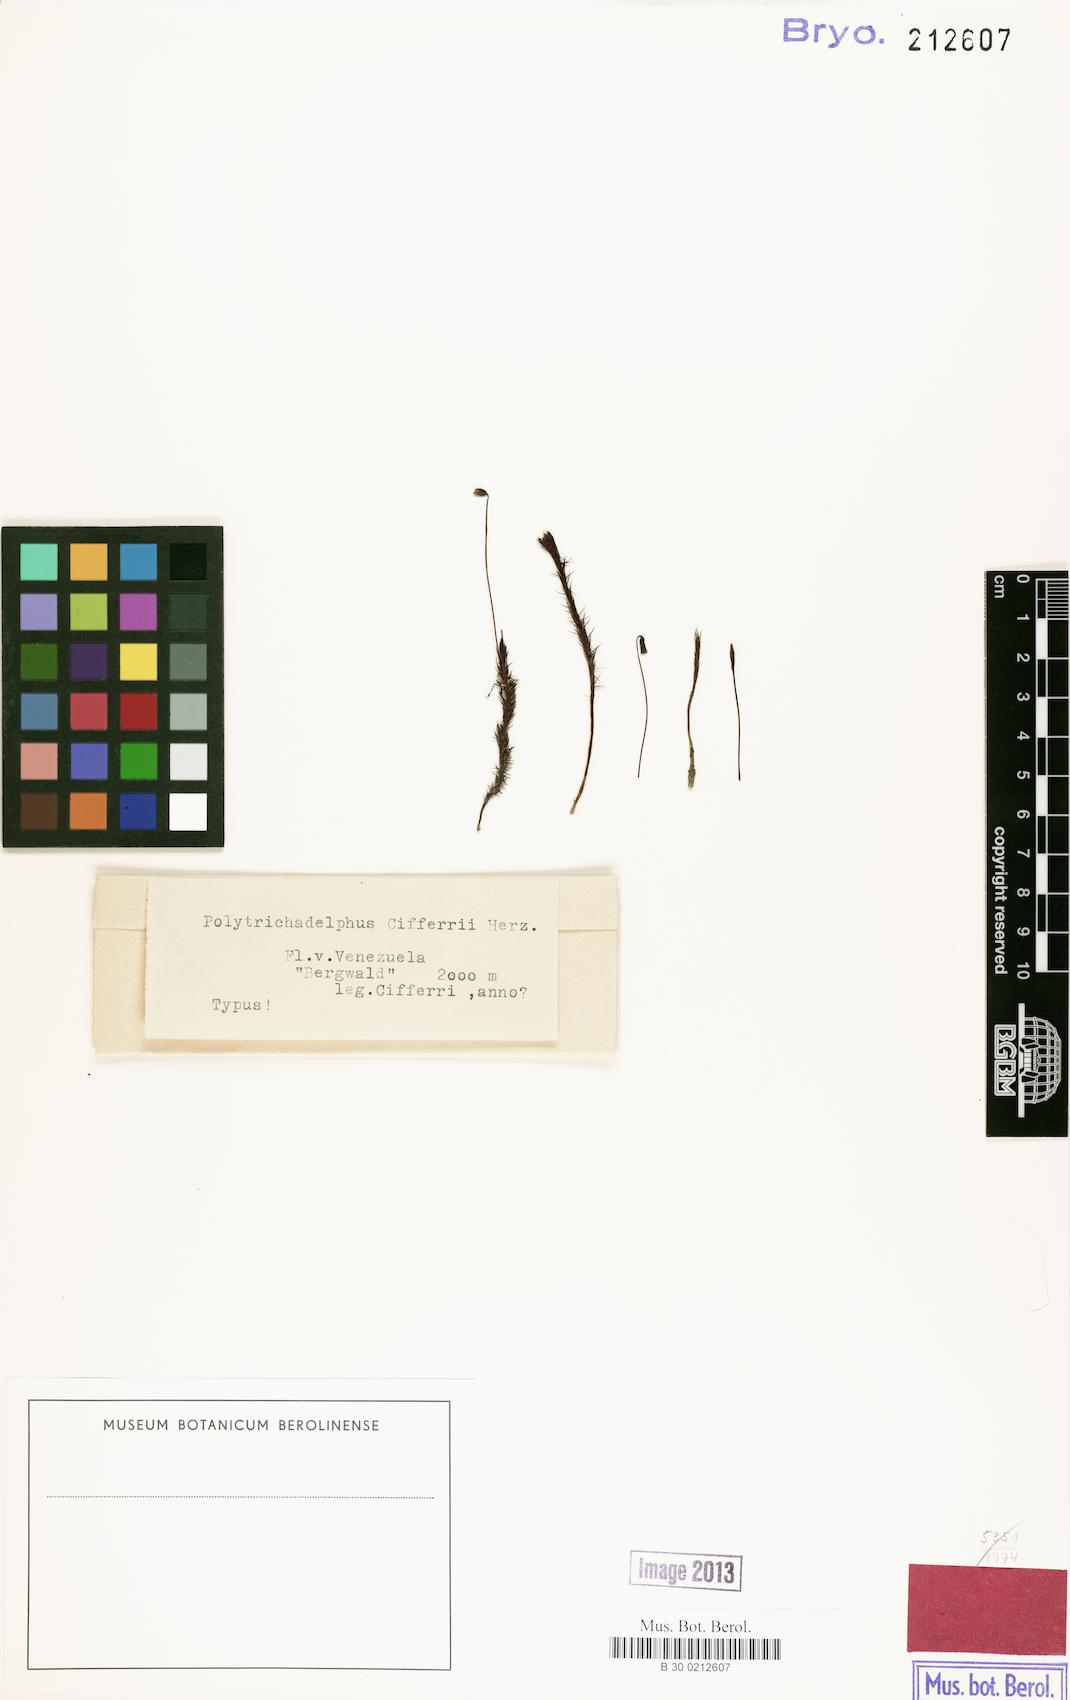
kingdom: Plantae
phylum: Bryophyta
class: Polytrichopsida
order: Polytrichales
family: Polytrichaceae
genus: Polytrichadelphus
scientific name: Polytrichadelphus longisetus
